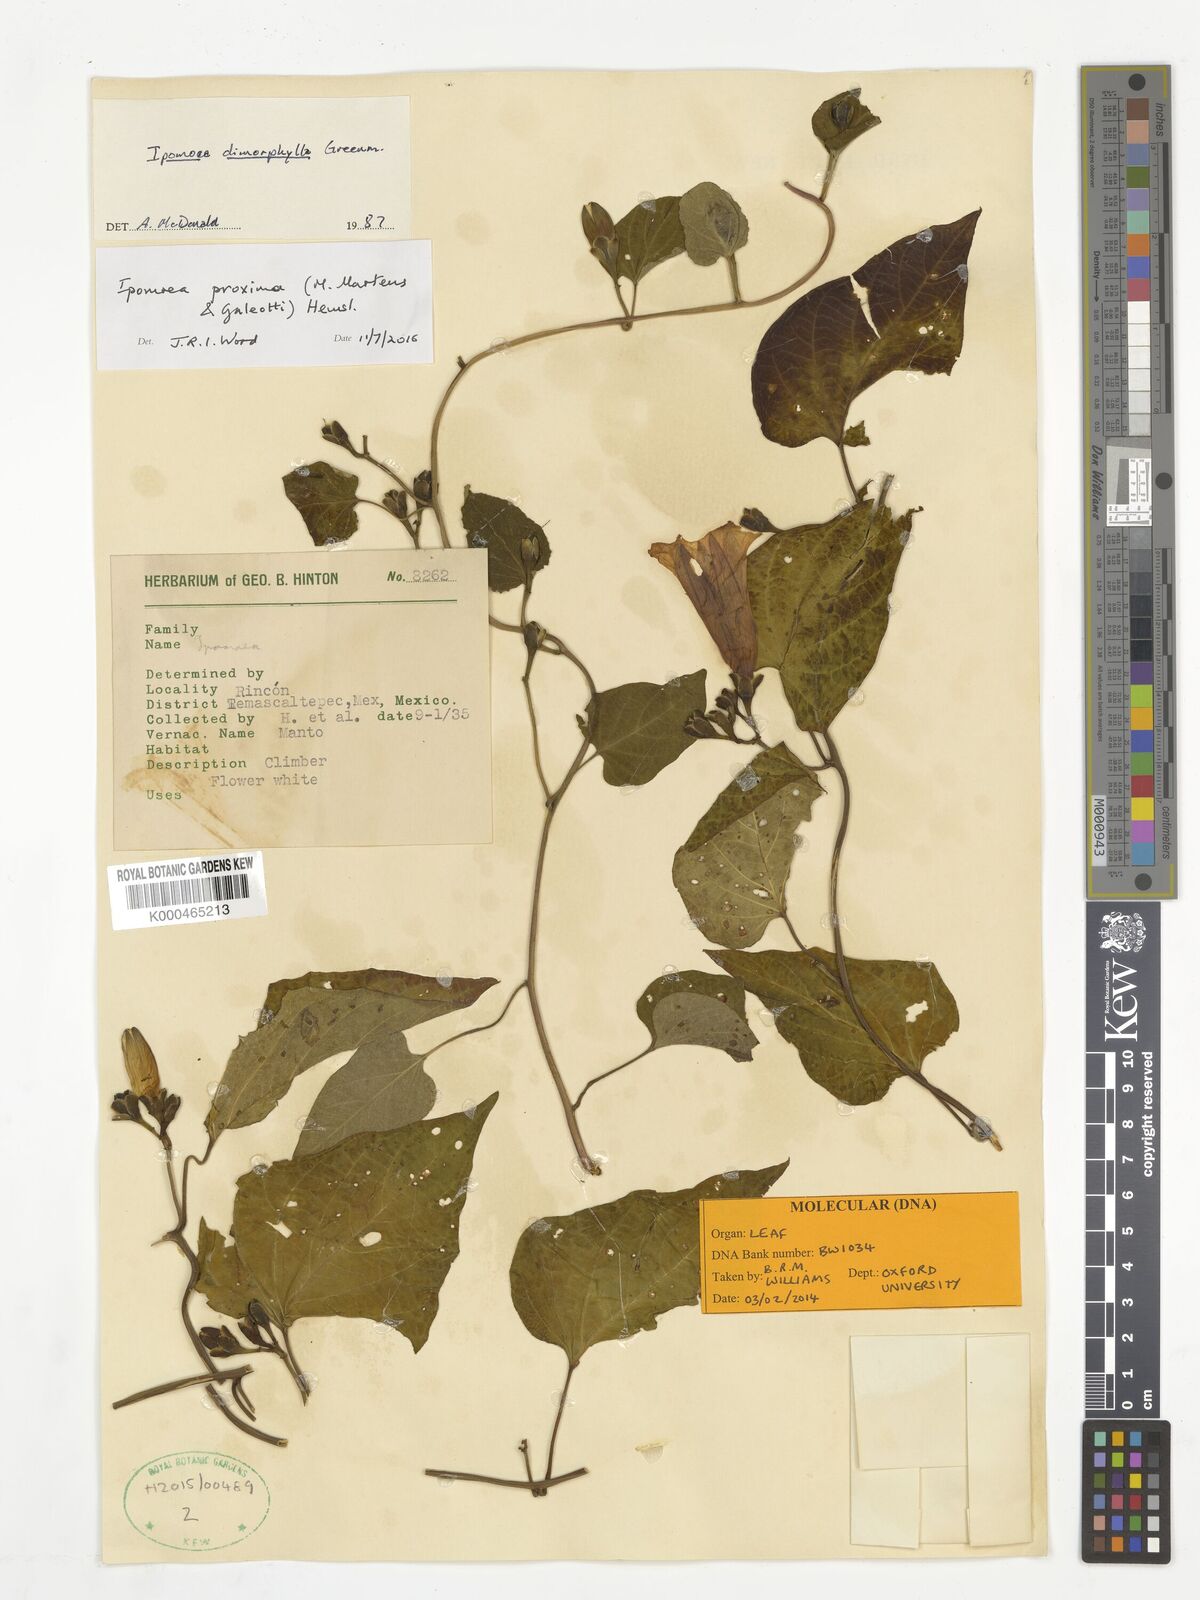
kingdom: Plantae
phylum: Tracheophyta
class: Magnoliopsida
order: Solanales
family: Convolvulaceae
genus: Ipomoea
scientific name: Ipomoea proxima
